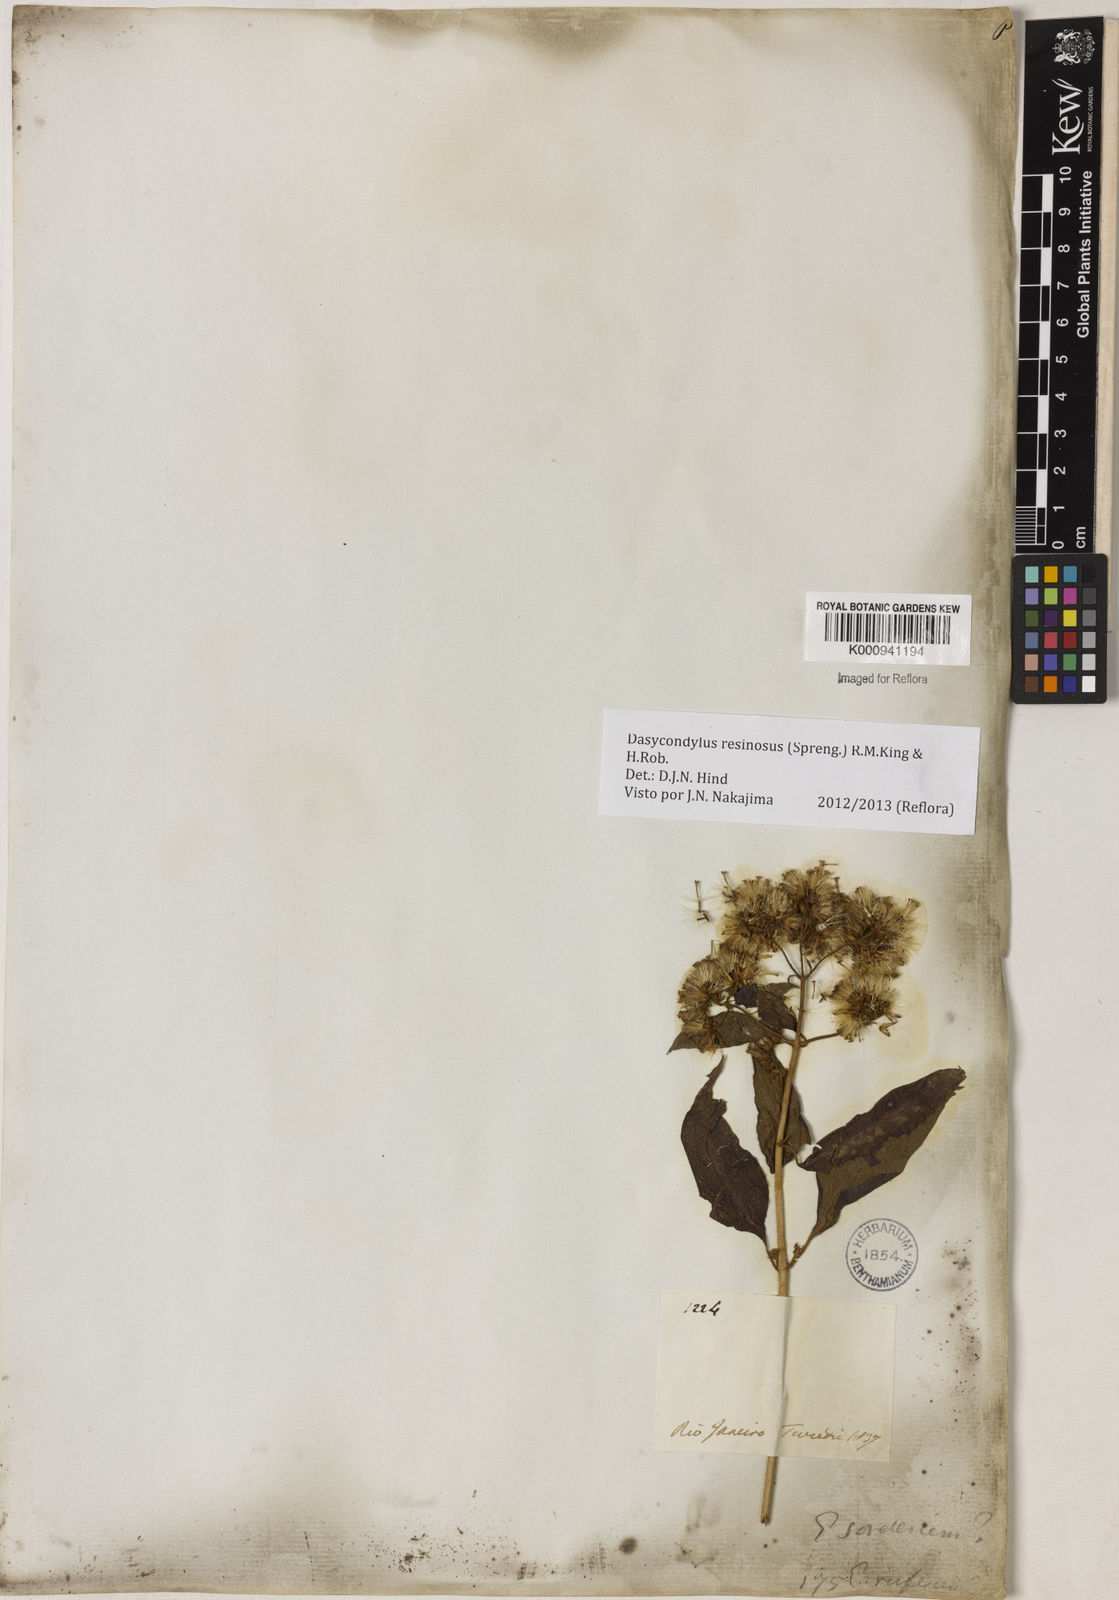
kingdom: Plantae
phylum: Tracheophyta
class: Magnoliopsida
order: Asterales
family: Asteraceae
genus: Dasycondylus
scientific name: Dasycondylus resinosus
